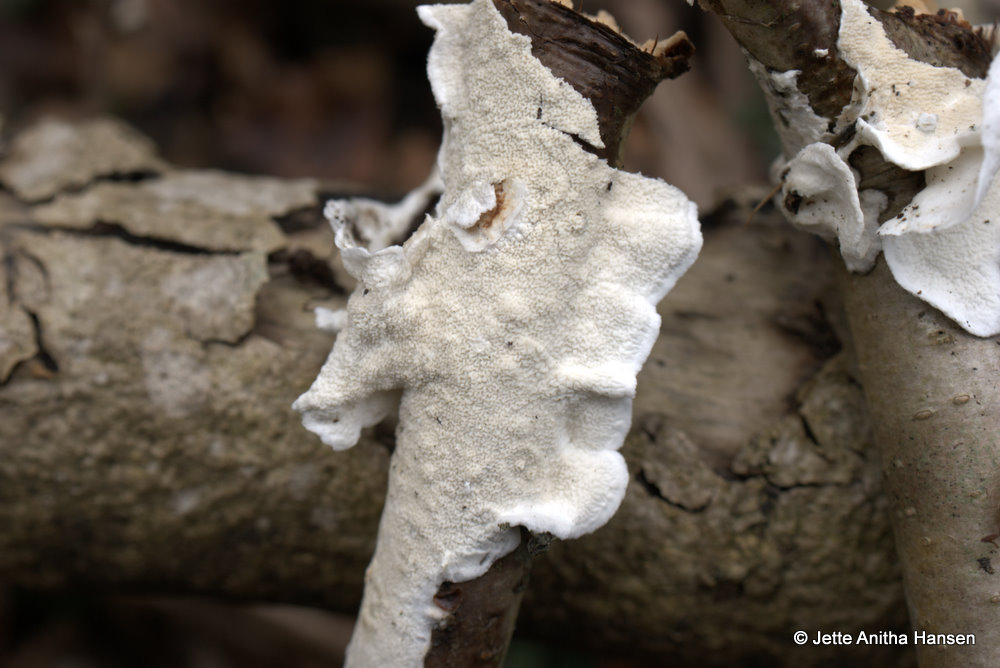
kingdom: Fungi
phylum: Basidiomycota
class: Agaricomycetes
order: Polyporales
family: Irpicaceae
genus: Byssomerulius
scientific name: Byssomerulius corium
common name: læder-åresvamp
